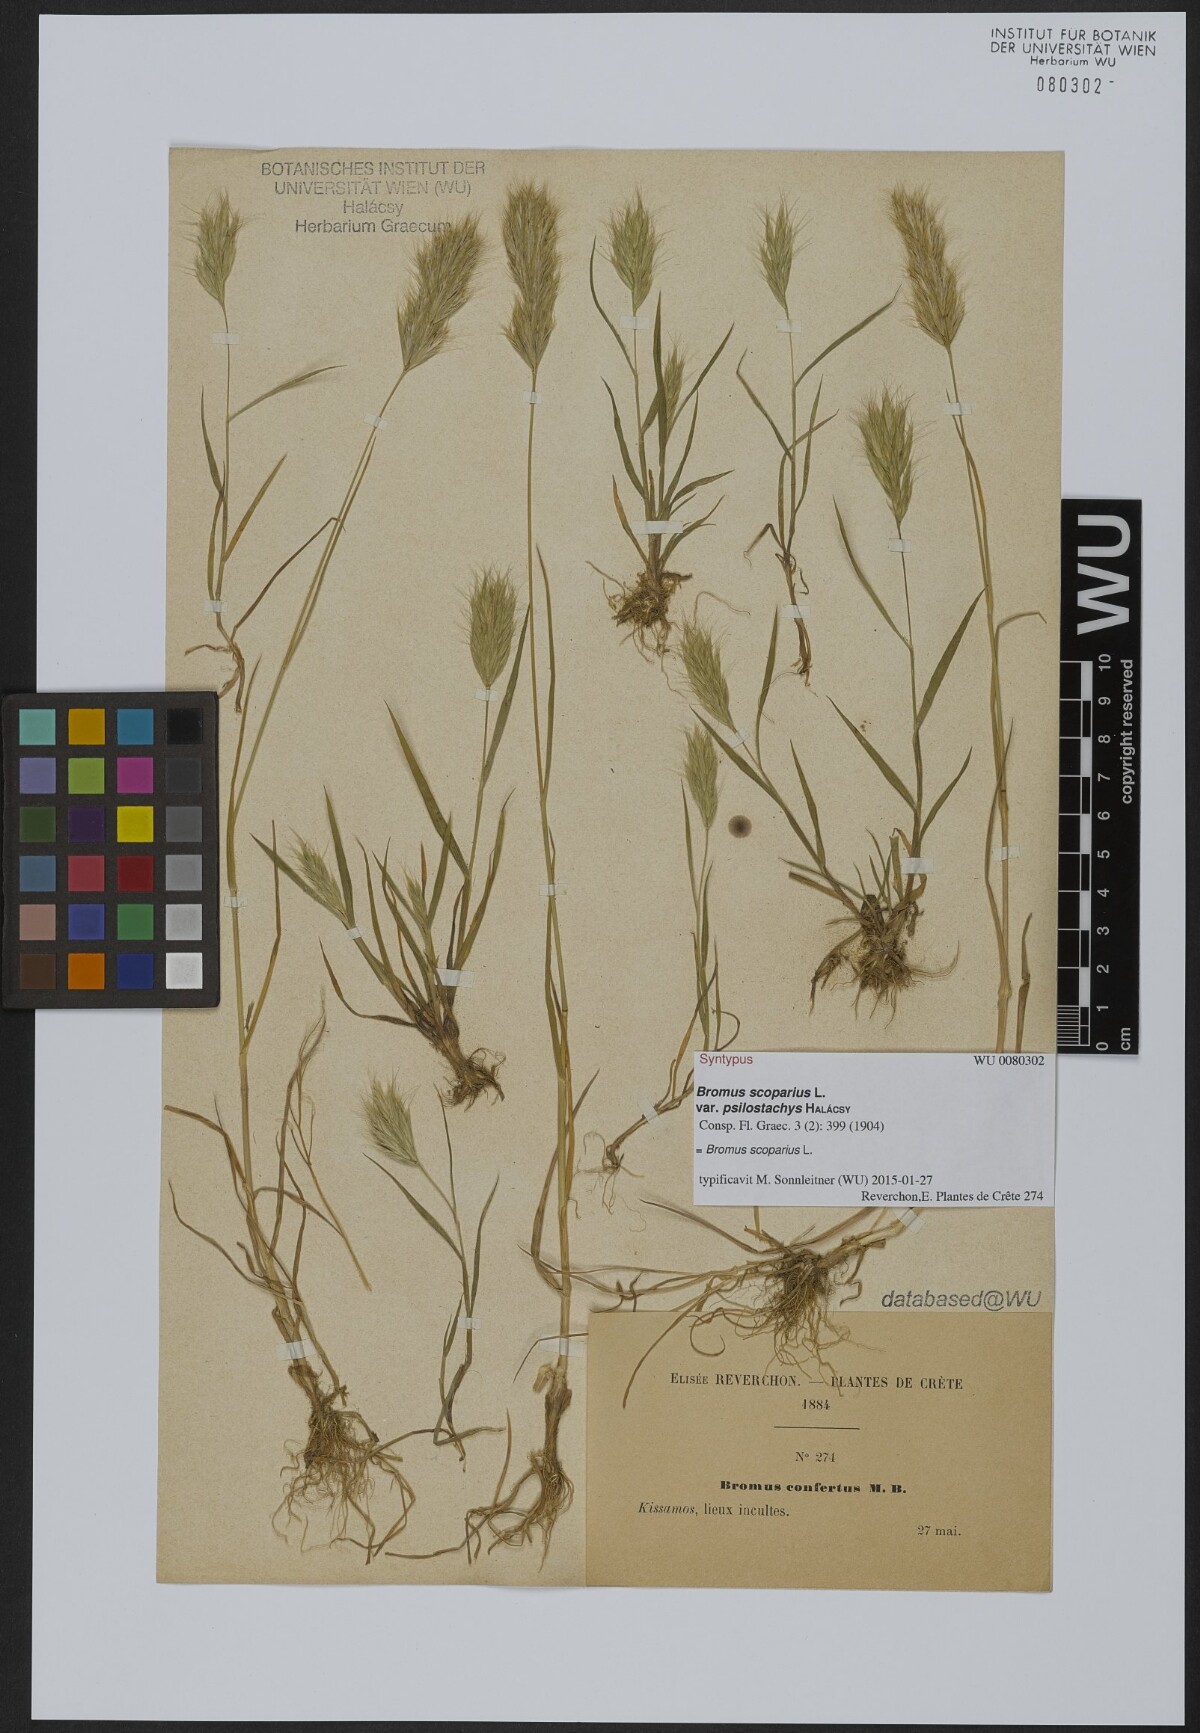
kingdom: Plantae
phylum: Tracheophyta
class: Liliopsida
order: Poales
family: Poaceae
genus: Bromus
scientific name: Bromus scoparius
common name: Broom brome
